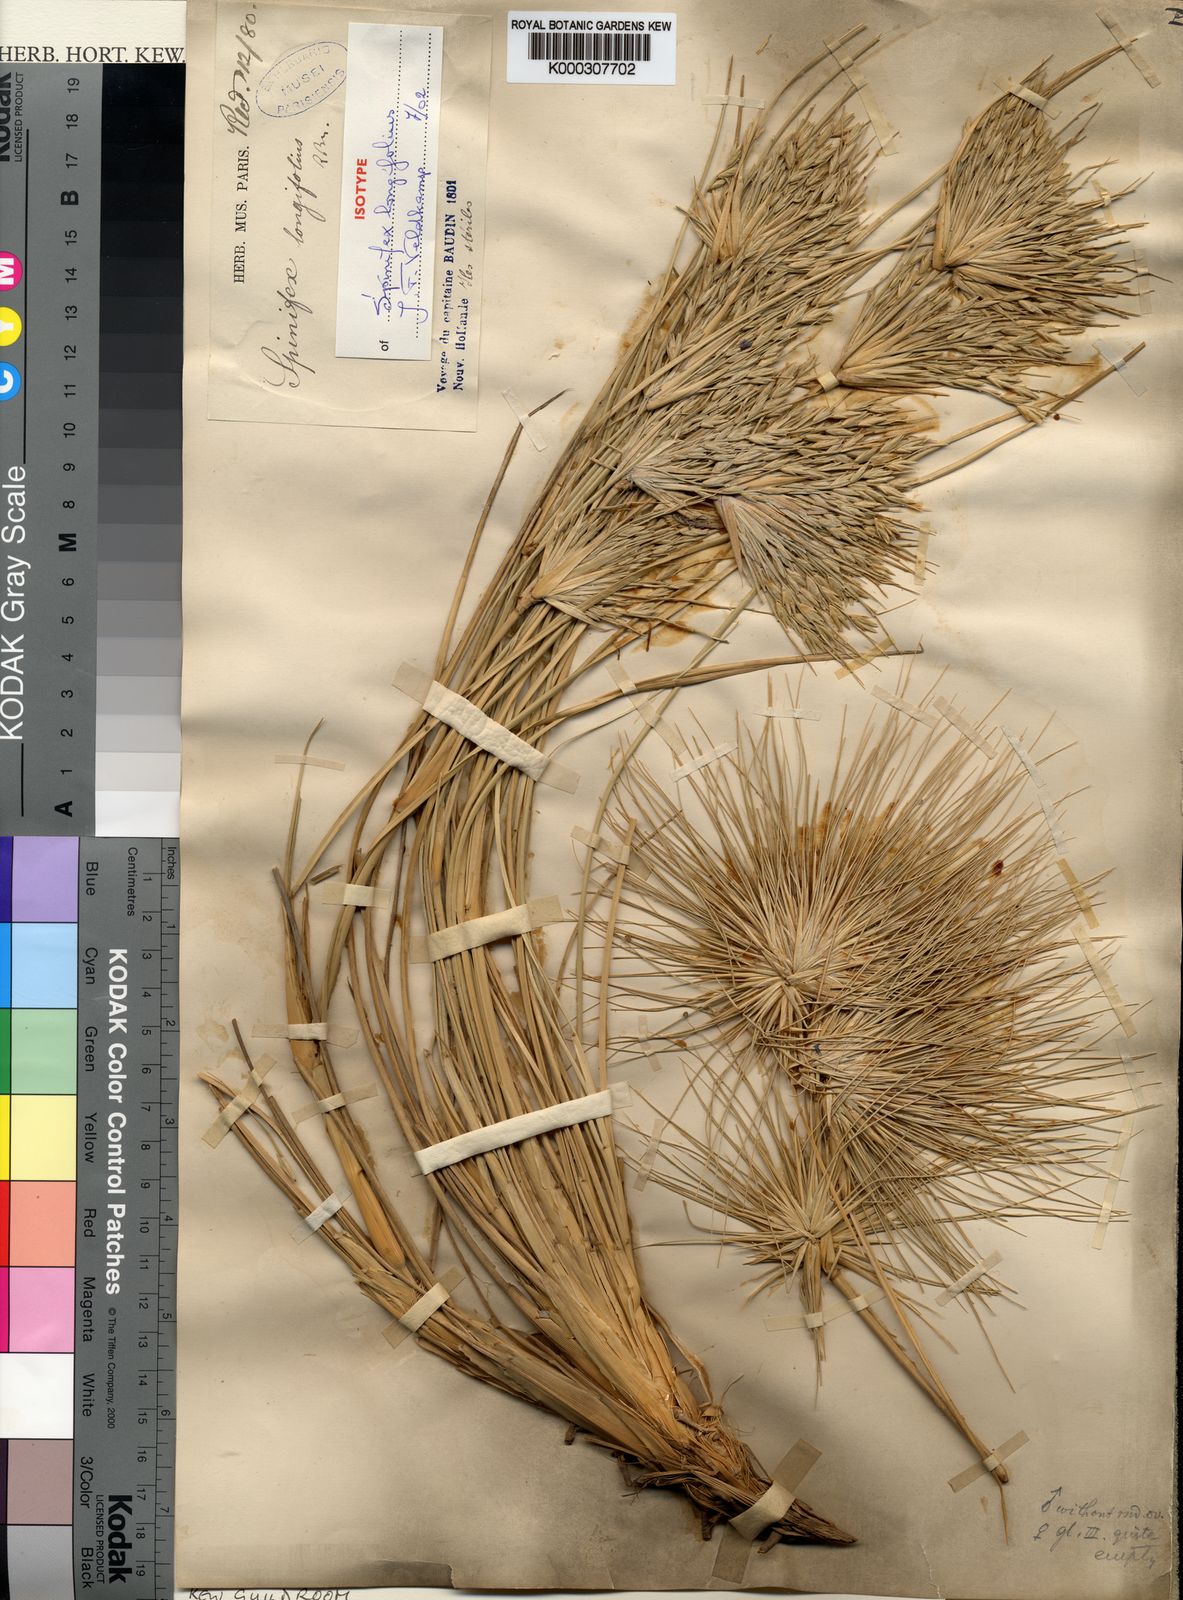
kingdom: Plantae
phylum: Tracheophyta
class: Liliopsida
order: Poales
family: Poaceae
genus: Spinifex
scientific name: Spinifex longifolius
